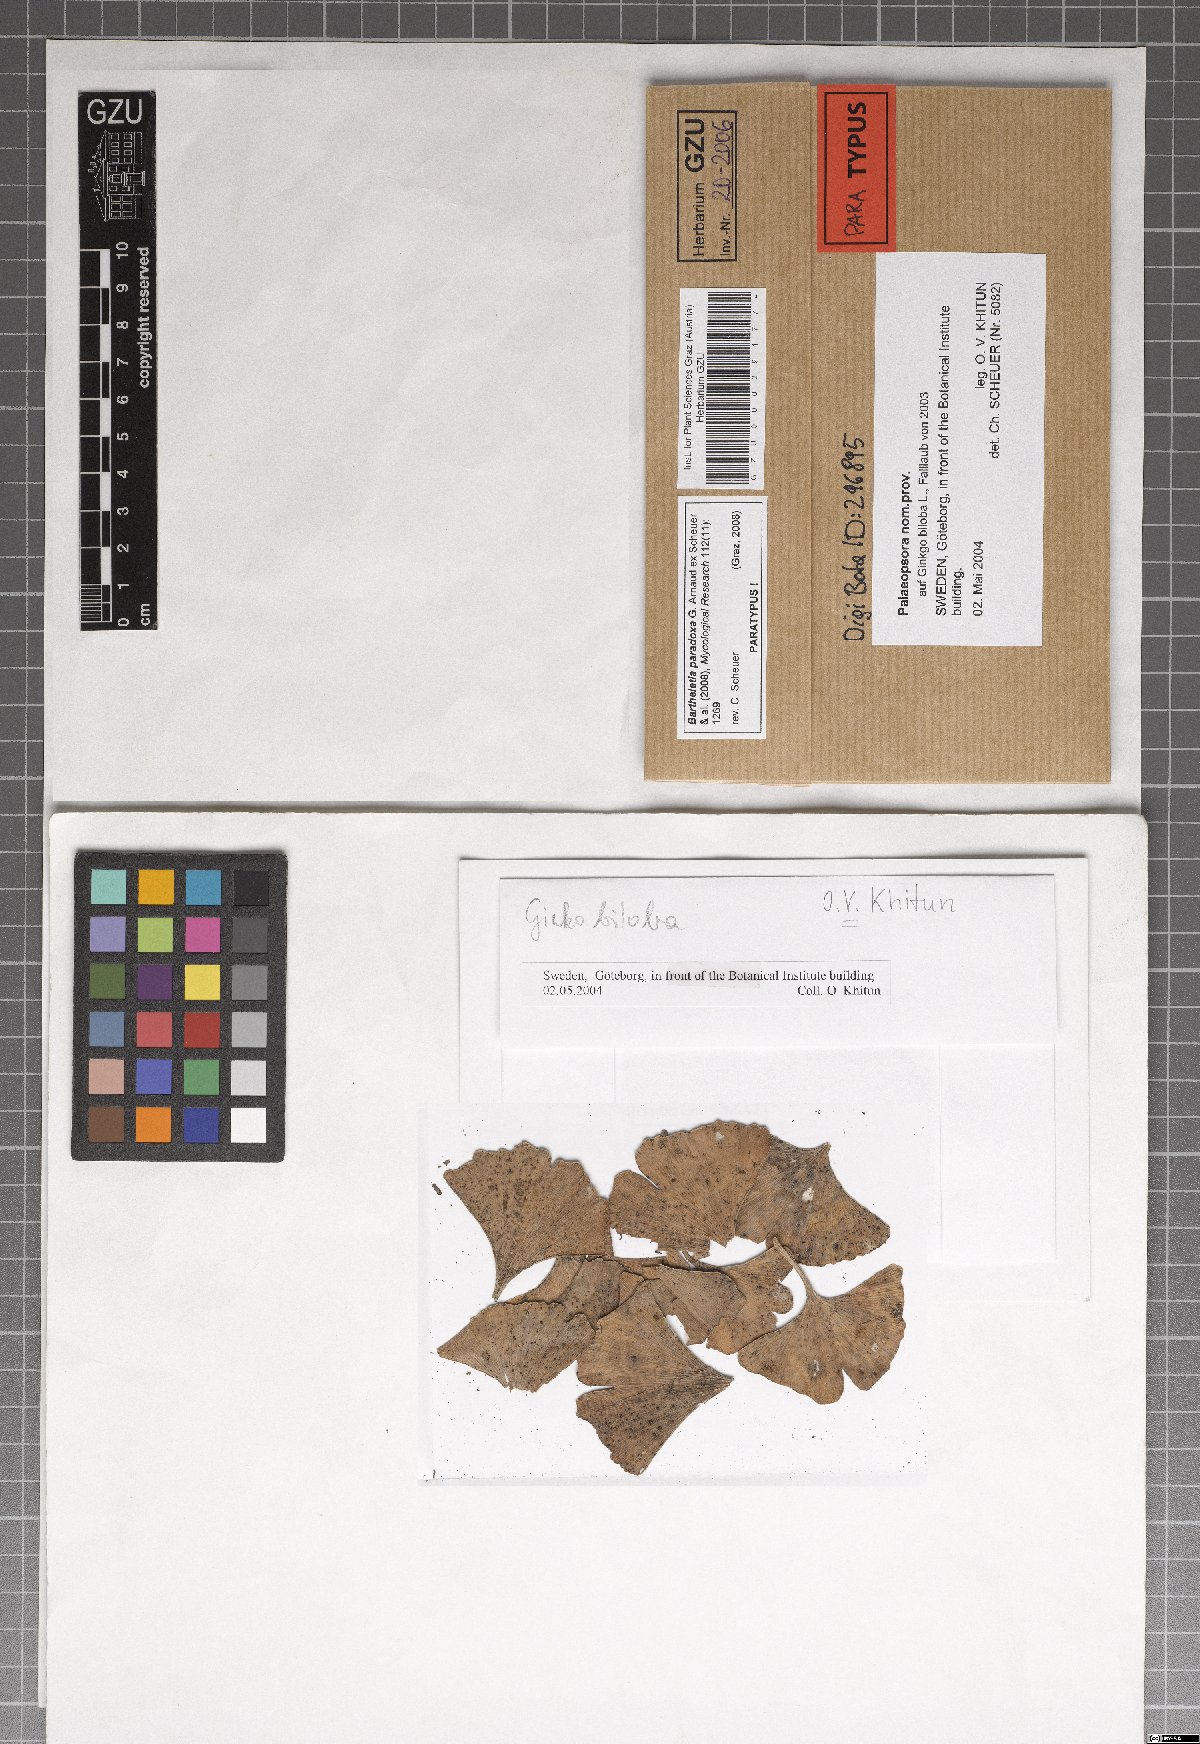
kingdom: Fungi
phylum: Basidiomycota
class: Wallemiomycetes
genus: Bartheletia
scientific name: Bartheletia paradoxa
